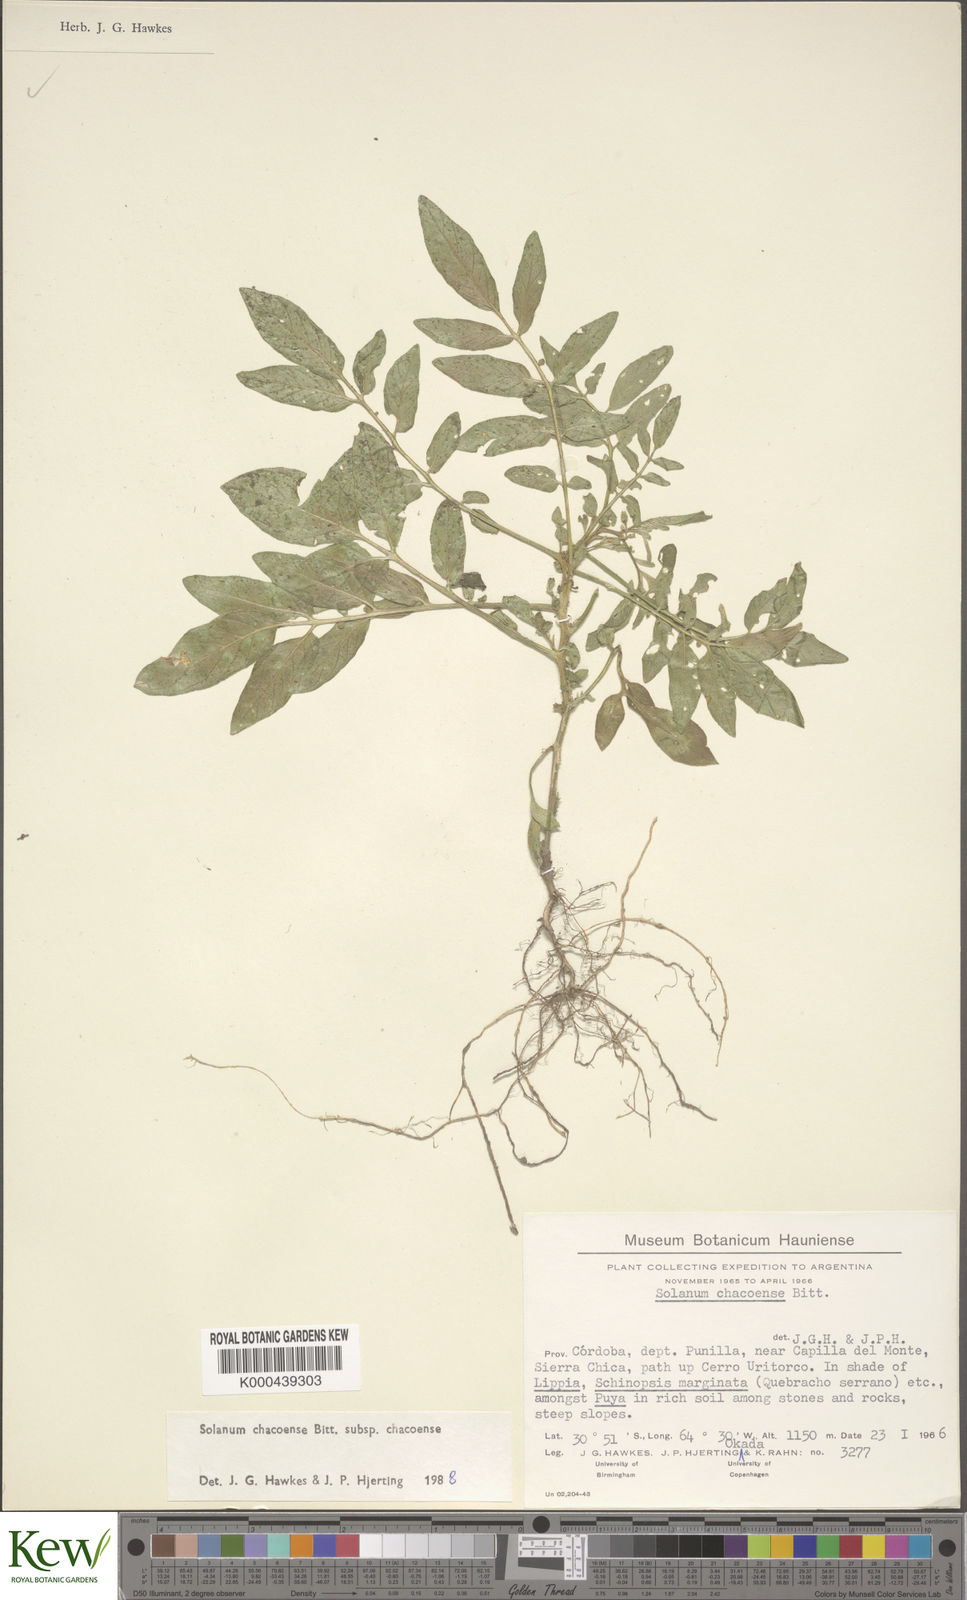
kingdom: Plantae
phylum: Tracheophyta
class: Magnoliopsida
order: Solanales
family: Solanaceae
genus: Solanum
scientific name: Solanum chacoense
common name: Chaco potato
